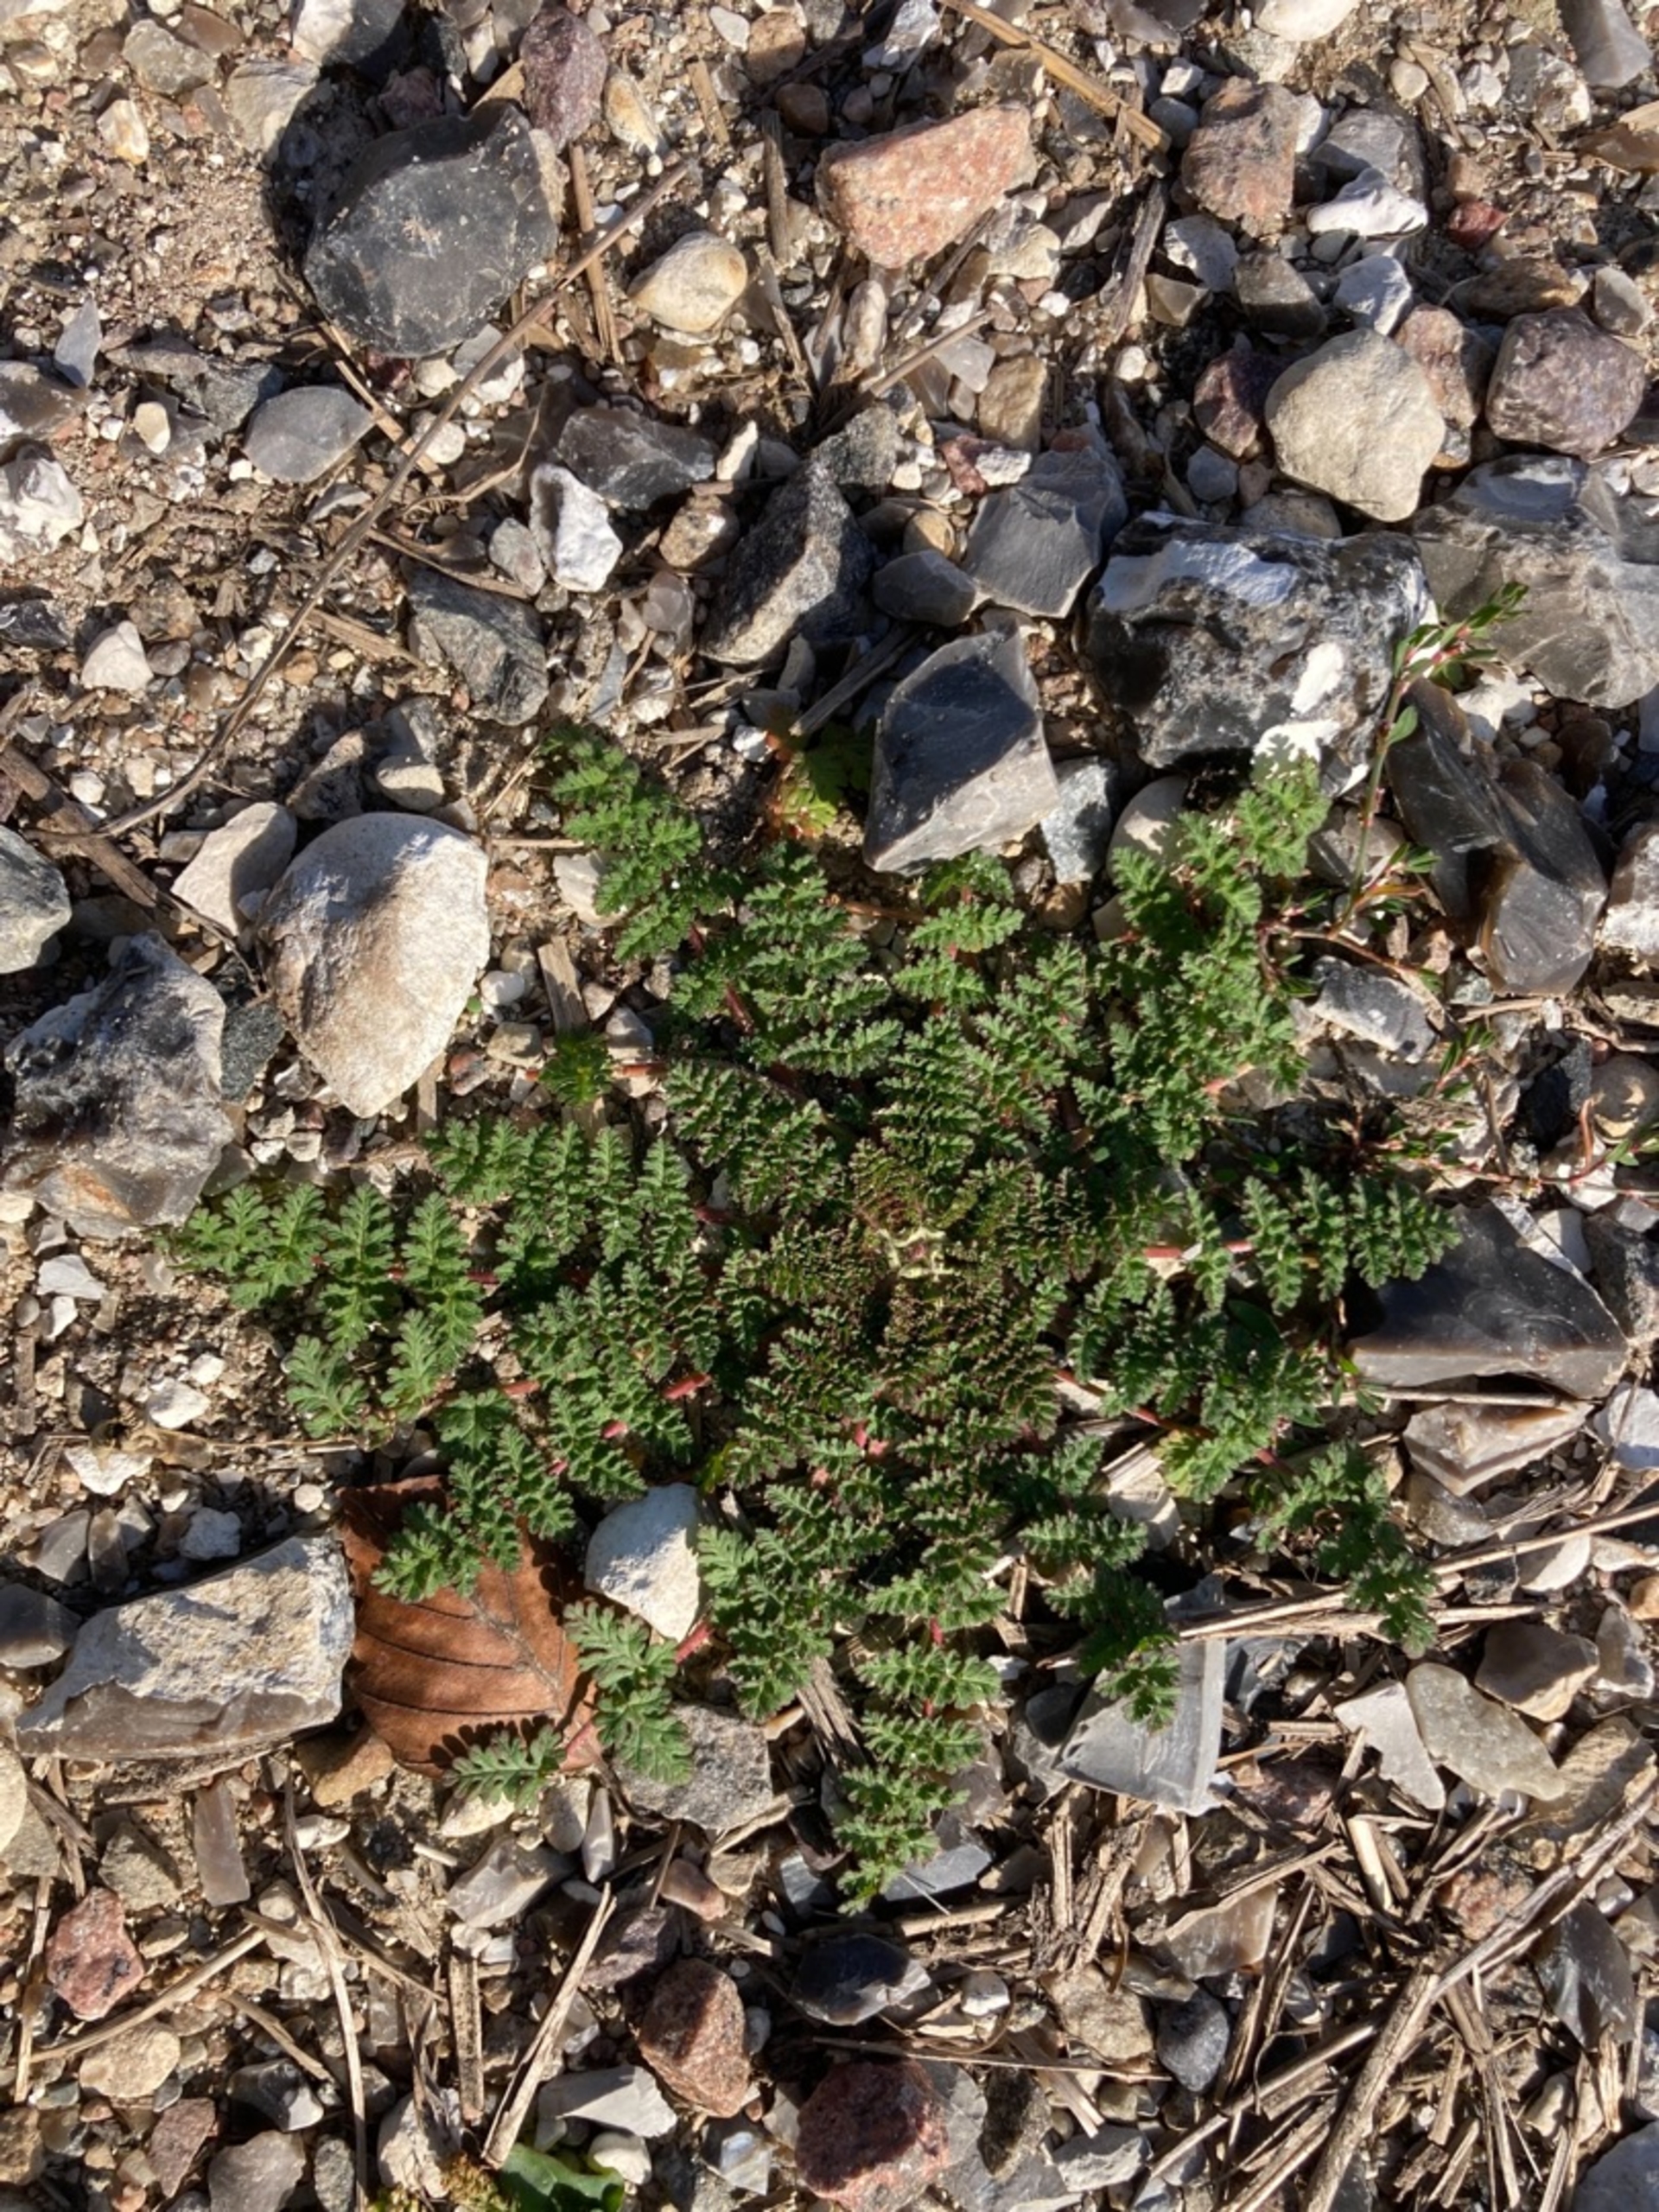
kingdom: Plantae
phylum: Tracheophyta
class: Magnoliopsida
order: Geraniales
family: Geraniaceae
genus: Erodium
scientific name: Erodium cicutarium
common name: Hejrenæb
